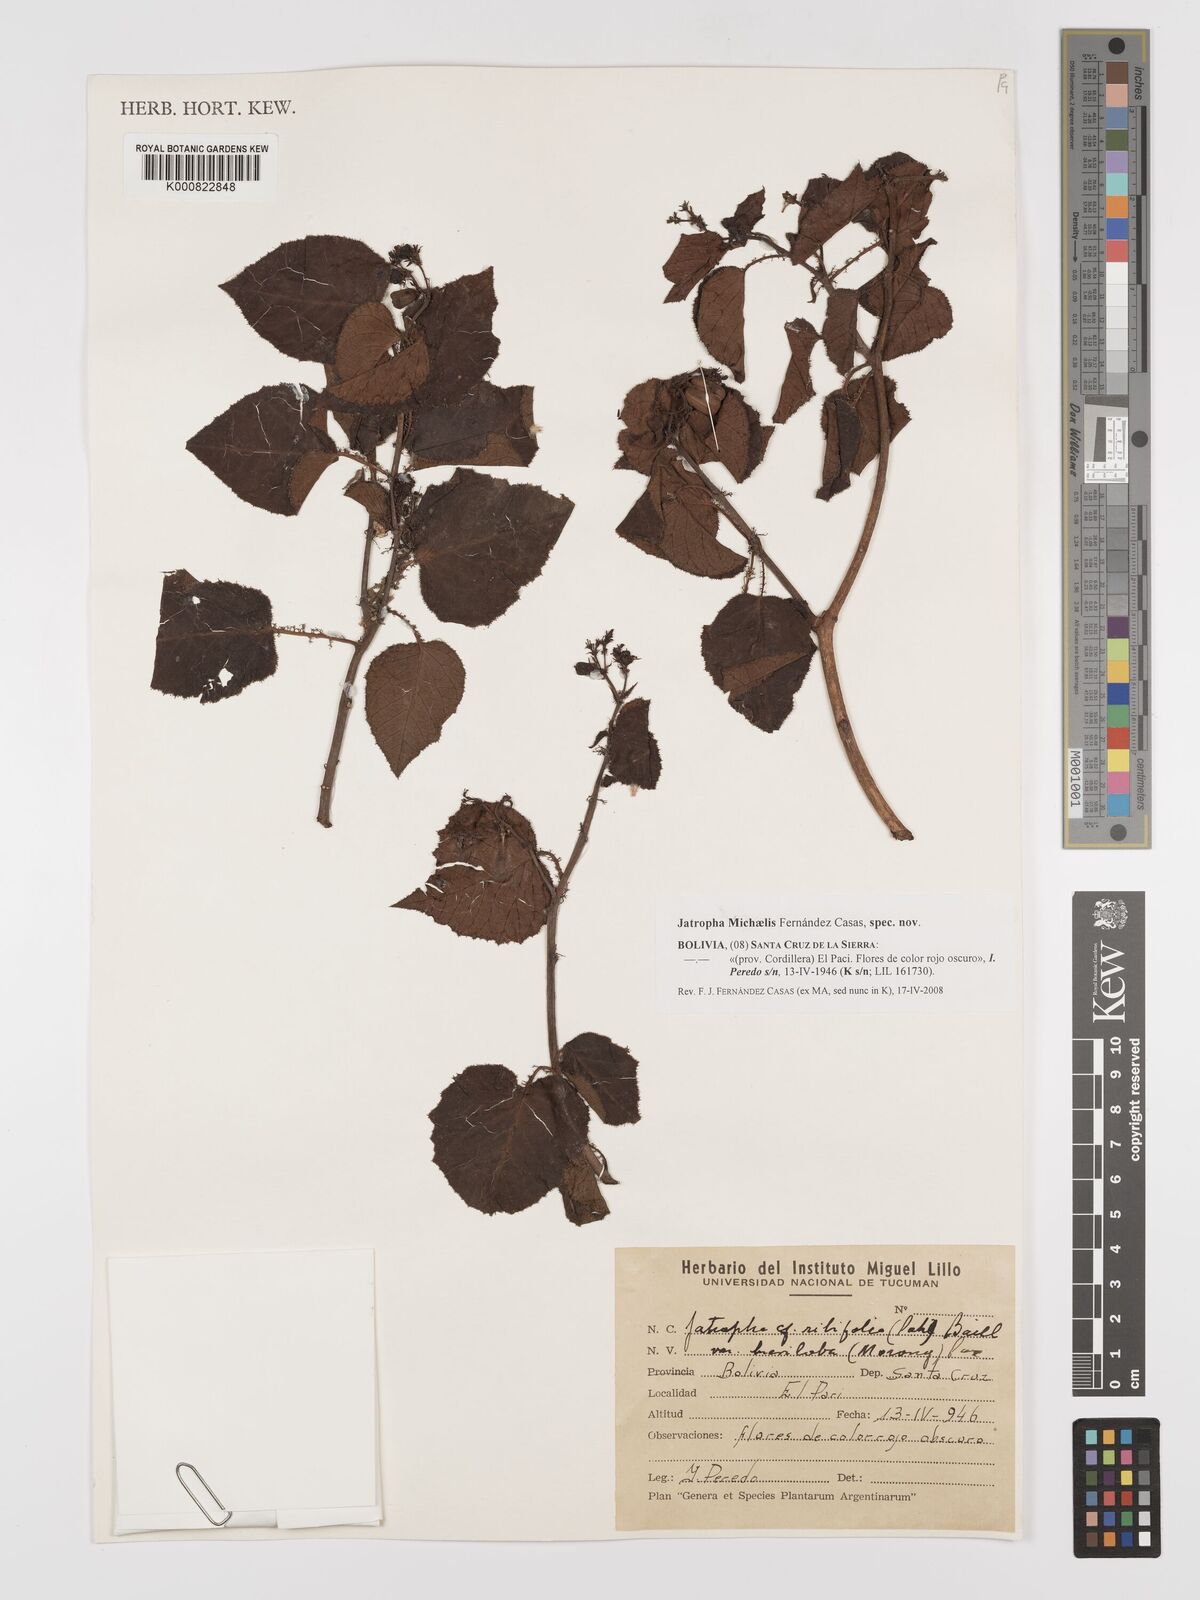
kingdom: Plantae
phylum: Tracheophyta
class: Magnoliopsida
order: Malpighiales
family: Euphorbiaceae
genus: Jatropha
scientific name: Jatropha
